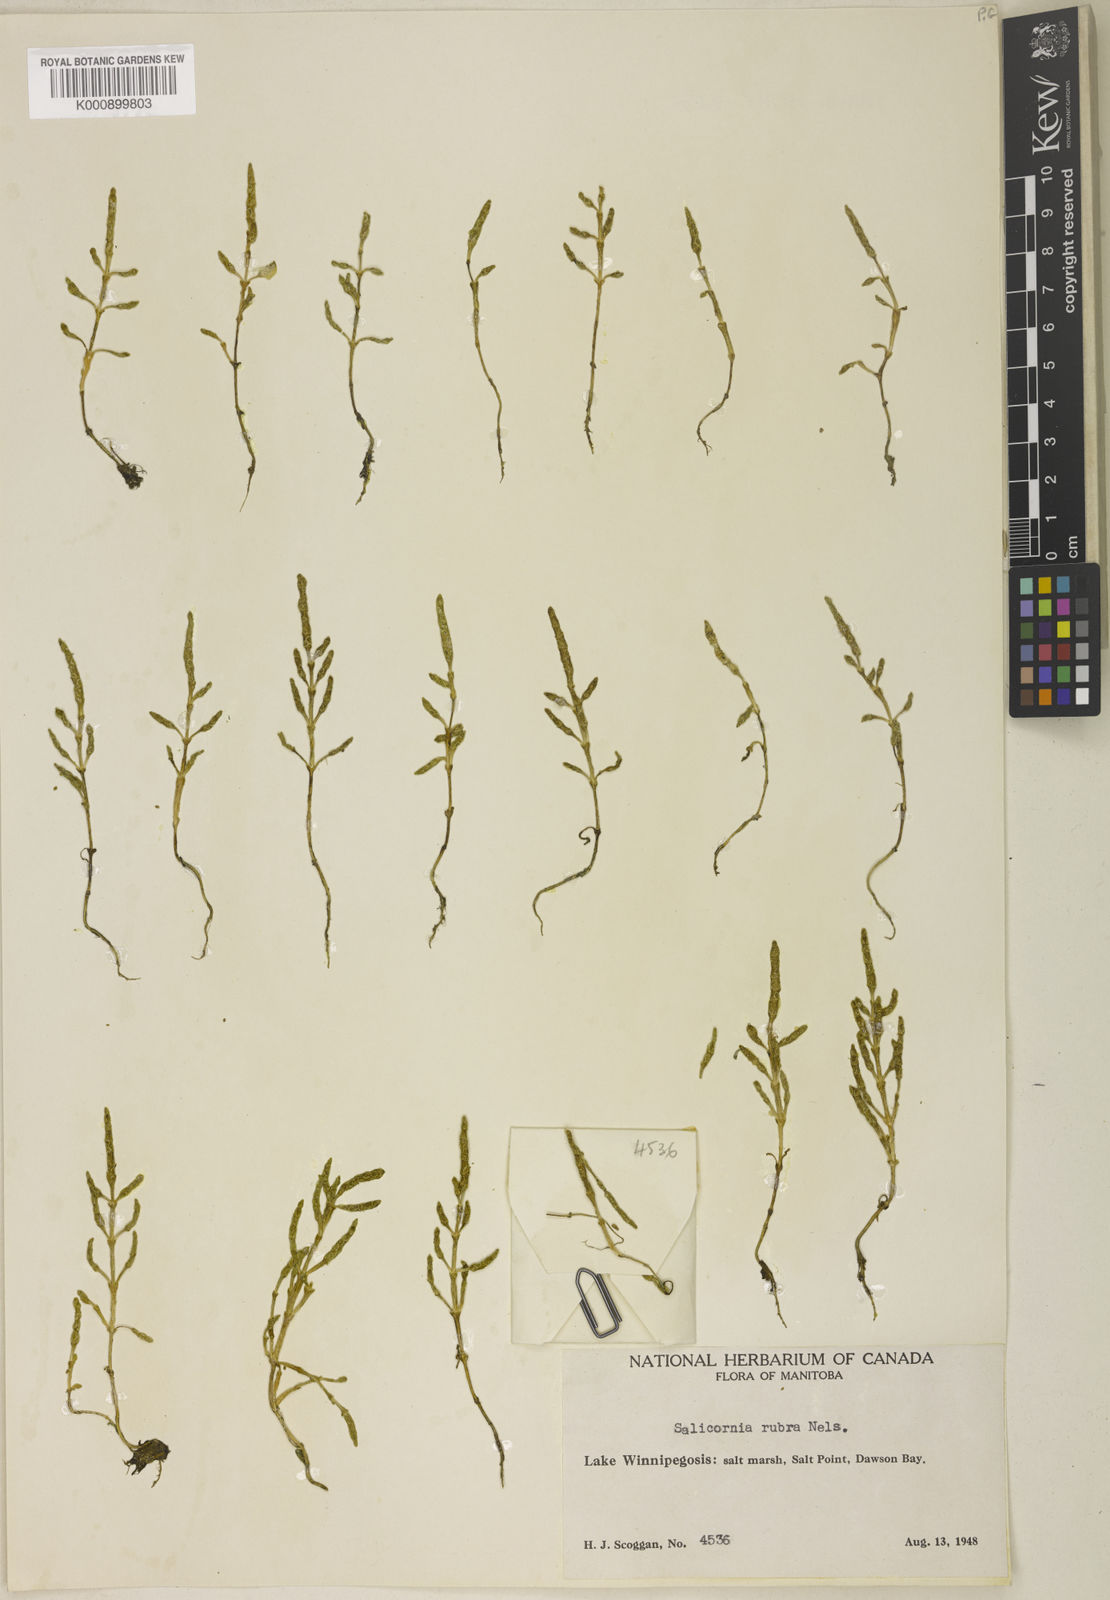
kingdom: Plantae
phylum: Tracheophyta
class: Magnoliopsida
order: Caryophyllales
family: Amaranthaceae
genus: Salicornia
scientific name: Salicornia rubra
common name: Red glasswort
